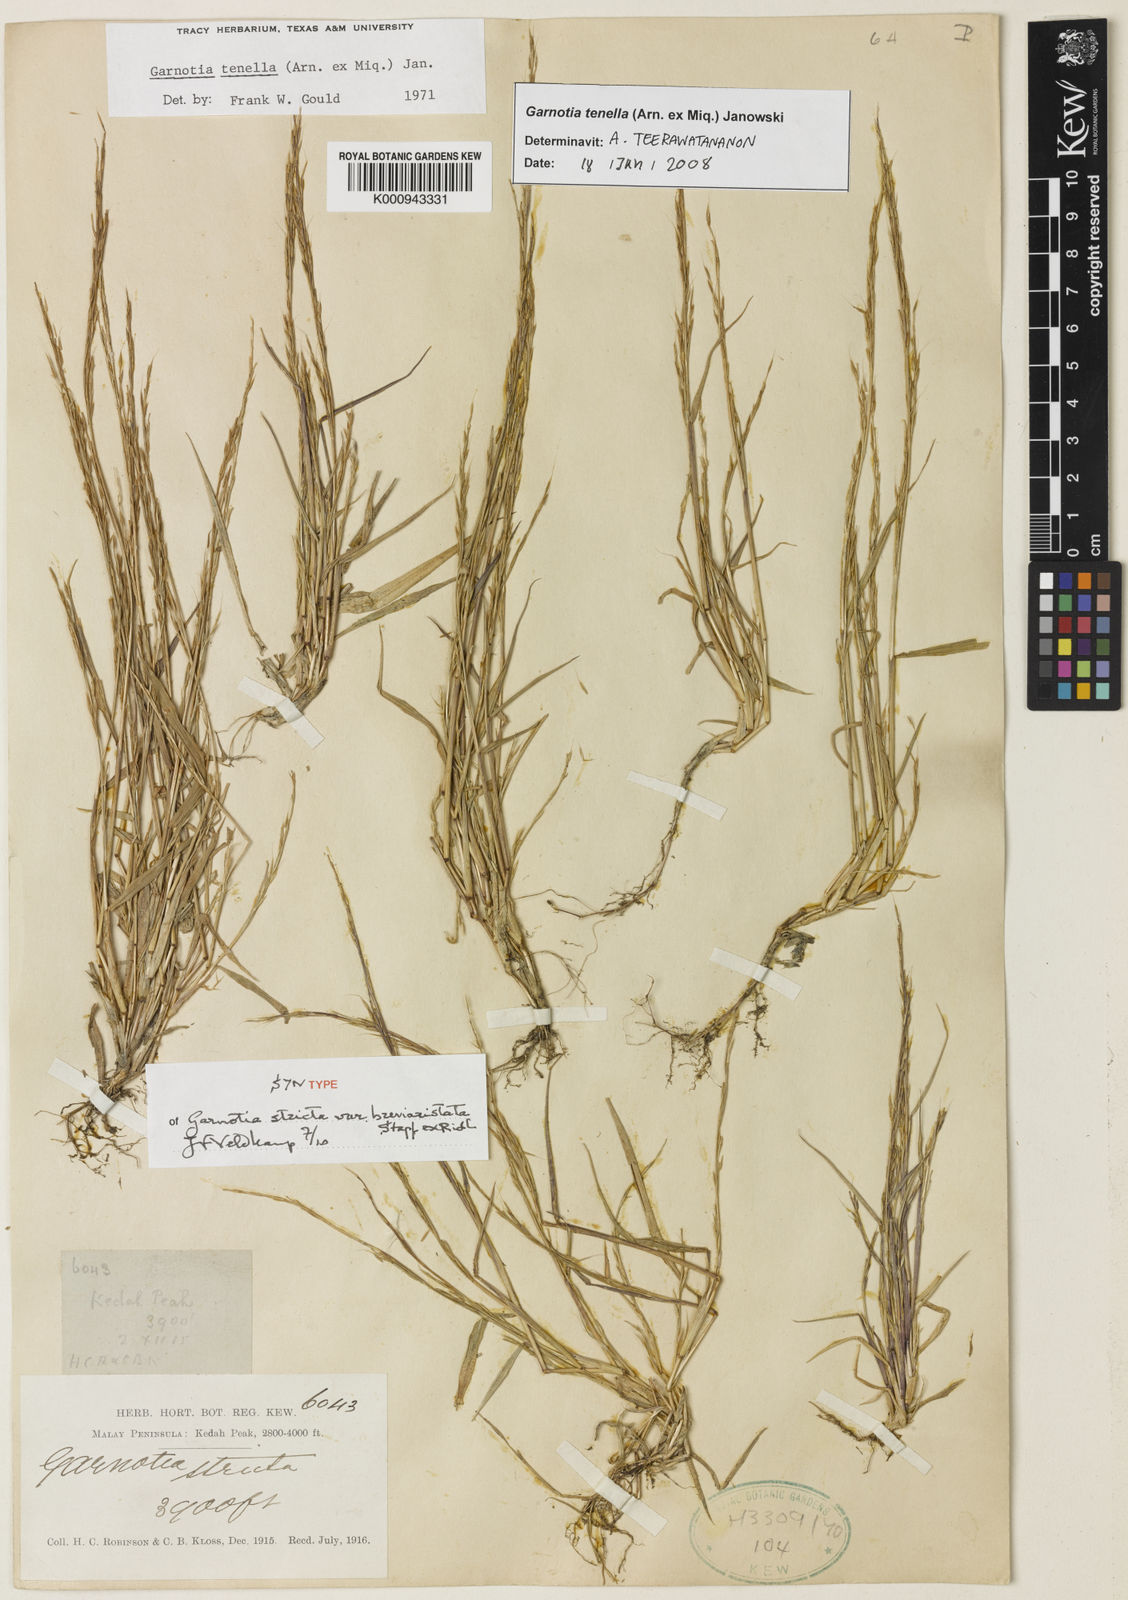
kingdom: Plantae
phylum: Tracheophyta
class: Liliopsida
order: Poales
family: Poaceae
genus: Garnotia
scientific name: Garnotia tenella
